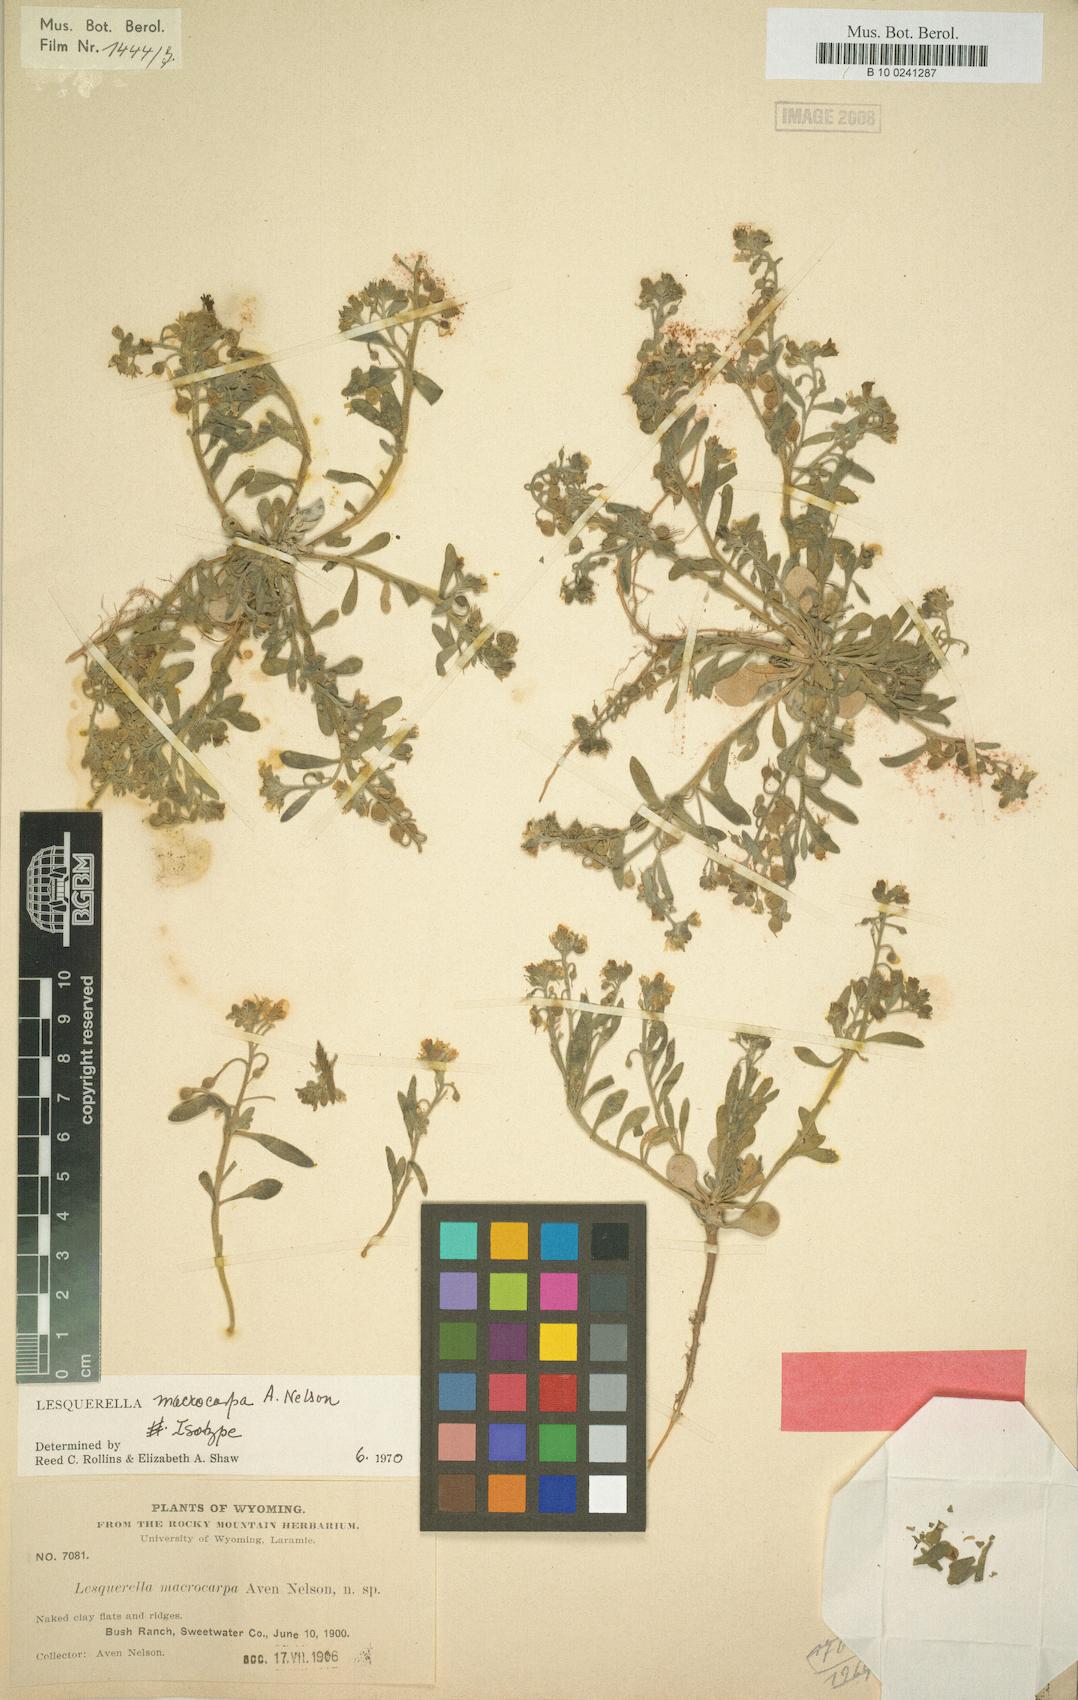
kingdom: Plantae
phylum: Tracheophyta
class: Magnoliopsida
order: Brassicales
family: Brassicaceae
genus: Physaria
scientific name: Physaria macrocarpa
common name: Large-fruit bladderpod
